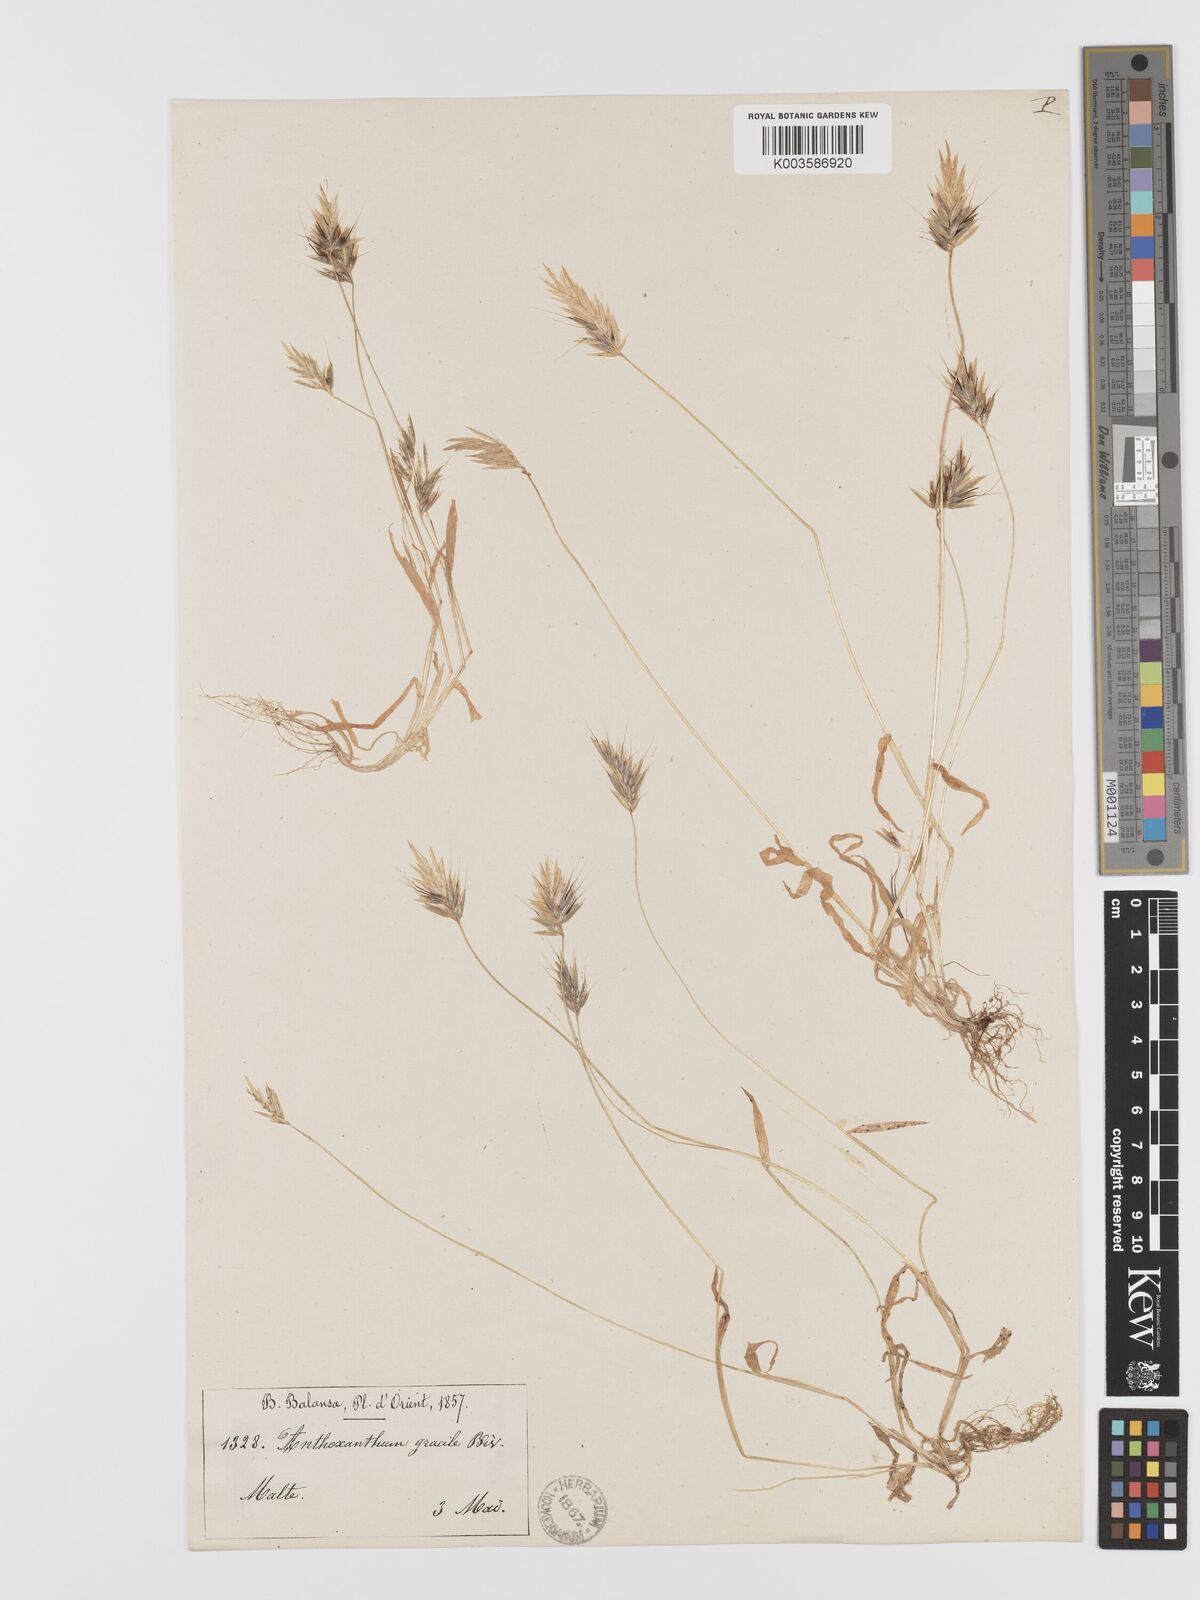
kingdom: Plantae
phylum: Tracheophyta
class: Liliopsida
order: Poales
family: Poaceae
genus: Anthoxanthum
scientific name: Anthoxanthum gracile
